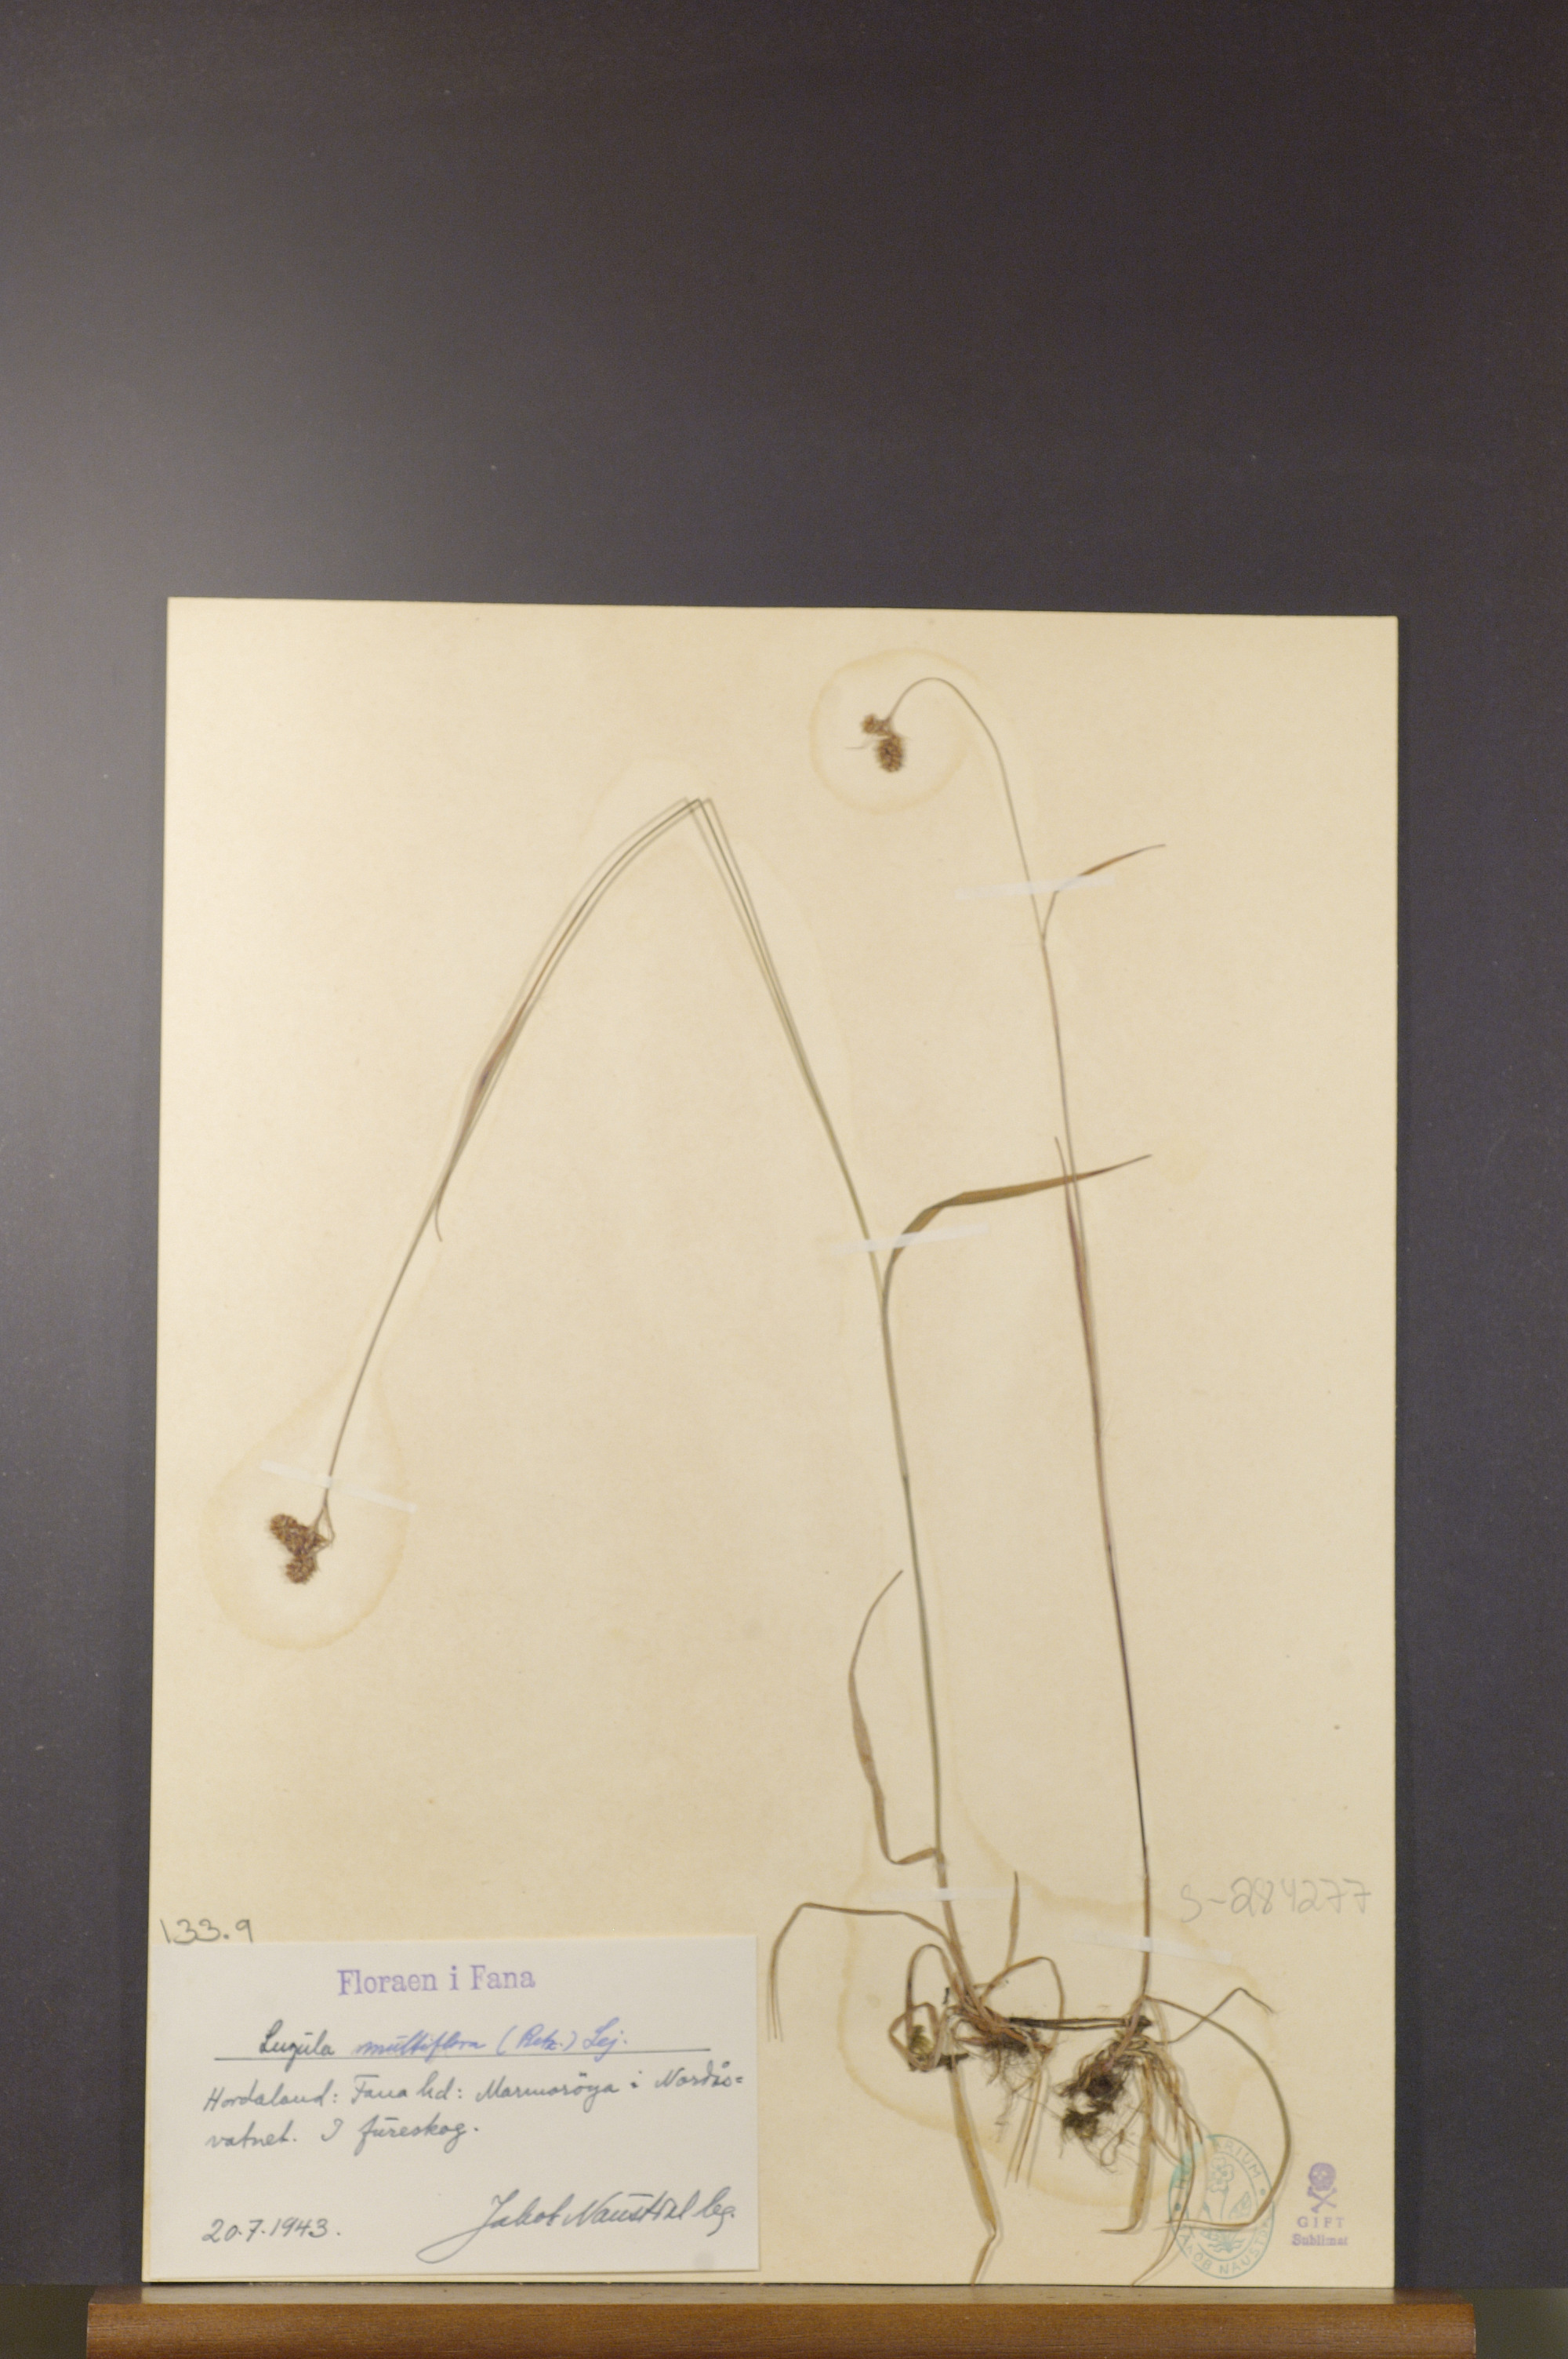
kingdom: Plantae
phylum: Tracheophyta
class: Liliopsida
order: Poales
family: Juncaceae
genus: Luzula
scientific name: Luzula multiflora
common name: Heath wood-rush
